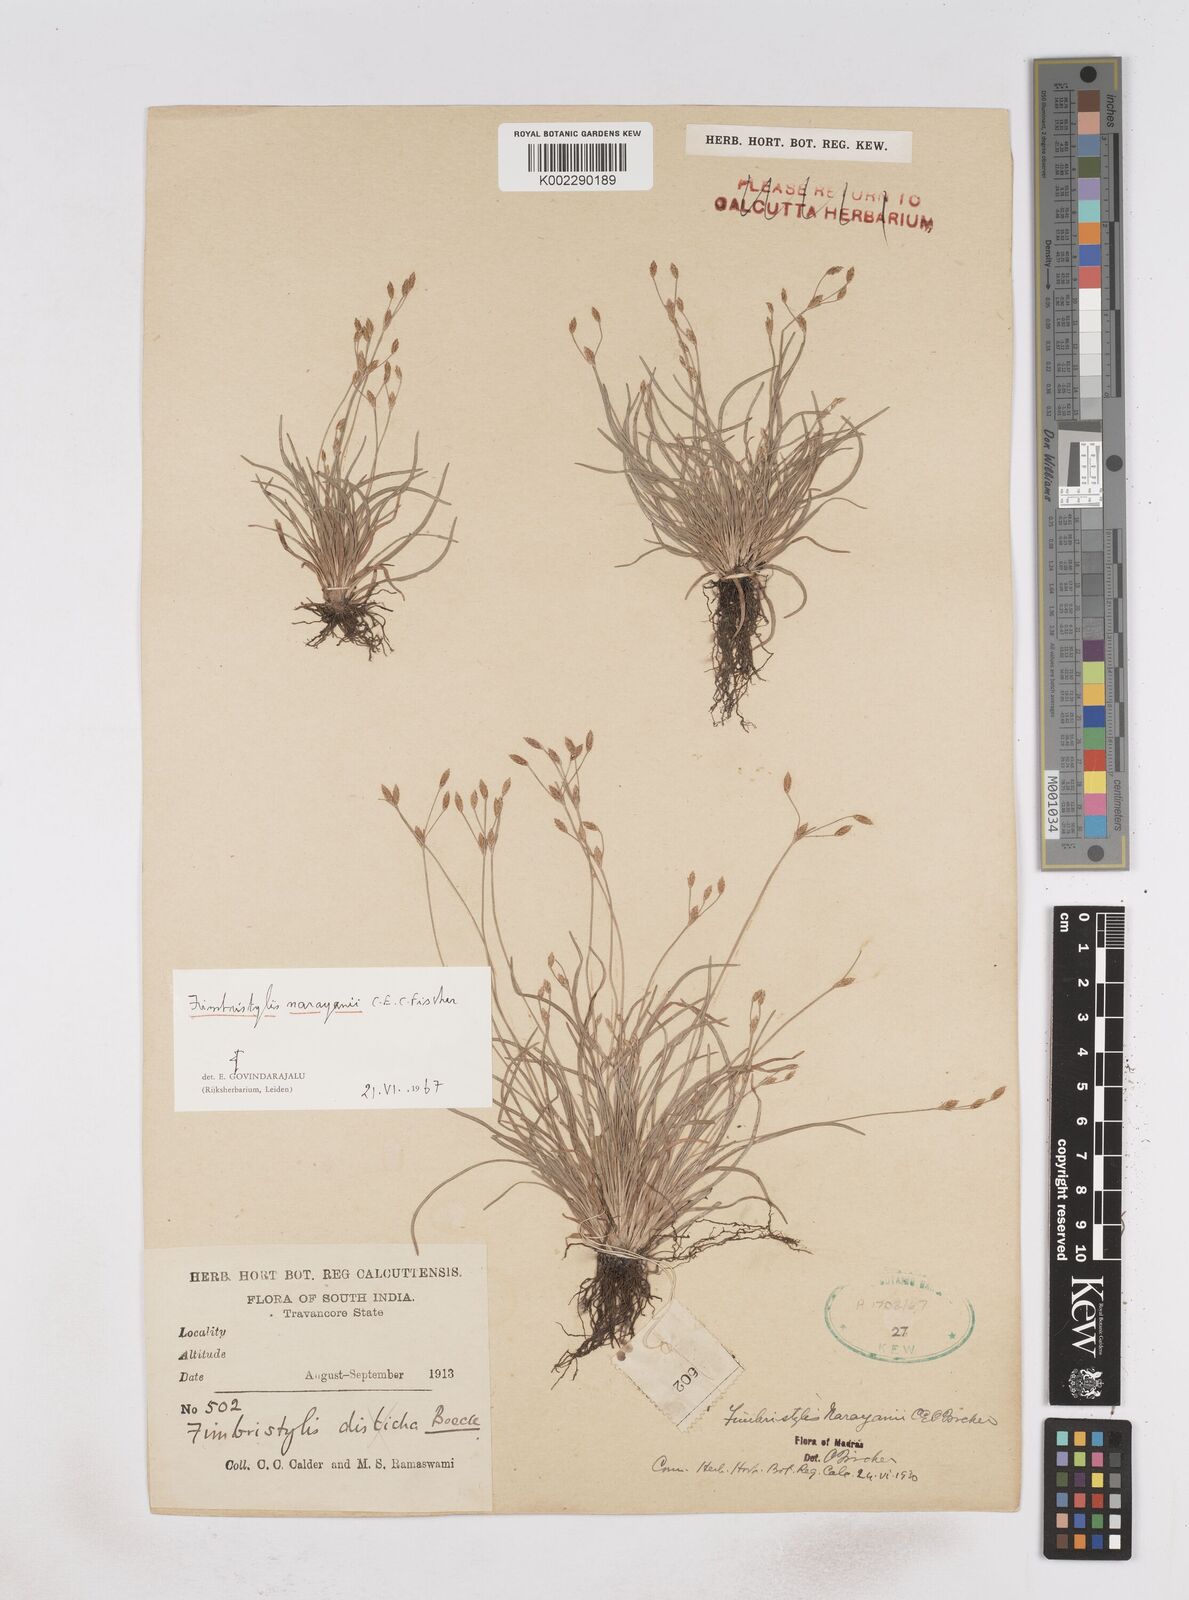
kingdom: Plantae
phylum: Tracheophyta
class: Liliopsida
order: Poales
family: Cyperaceae
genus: Fimbristylis
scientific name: Fimbristylis narayanii
